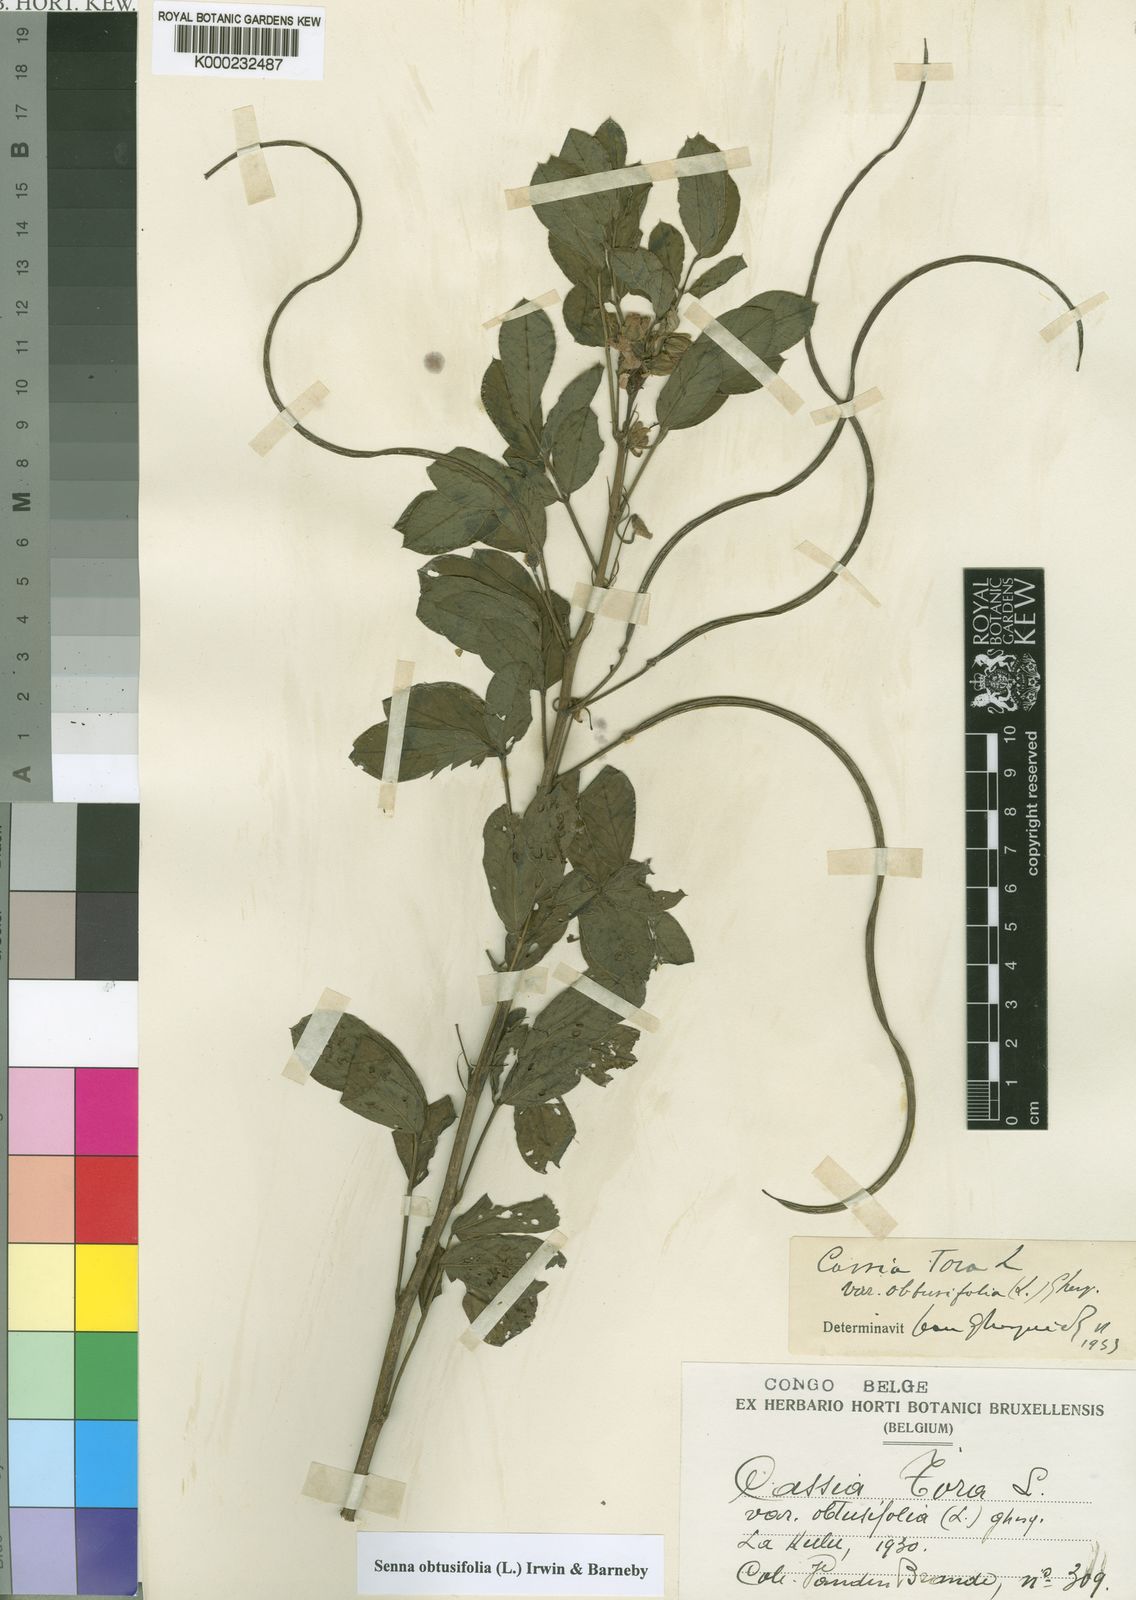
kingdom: Plantae
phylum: Tracheophyta
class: Magnoliopsida
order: Fabales
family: Fabaceae
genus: Senna
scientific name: Senna obtusifolia
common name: Java-bean
